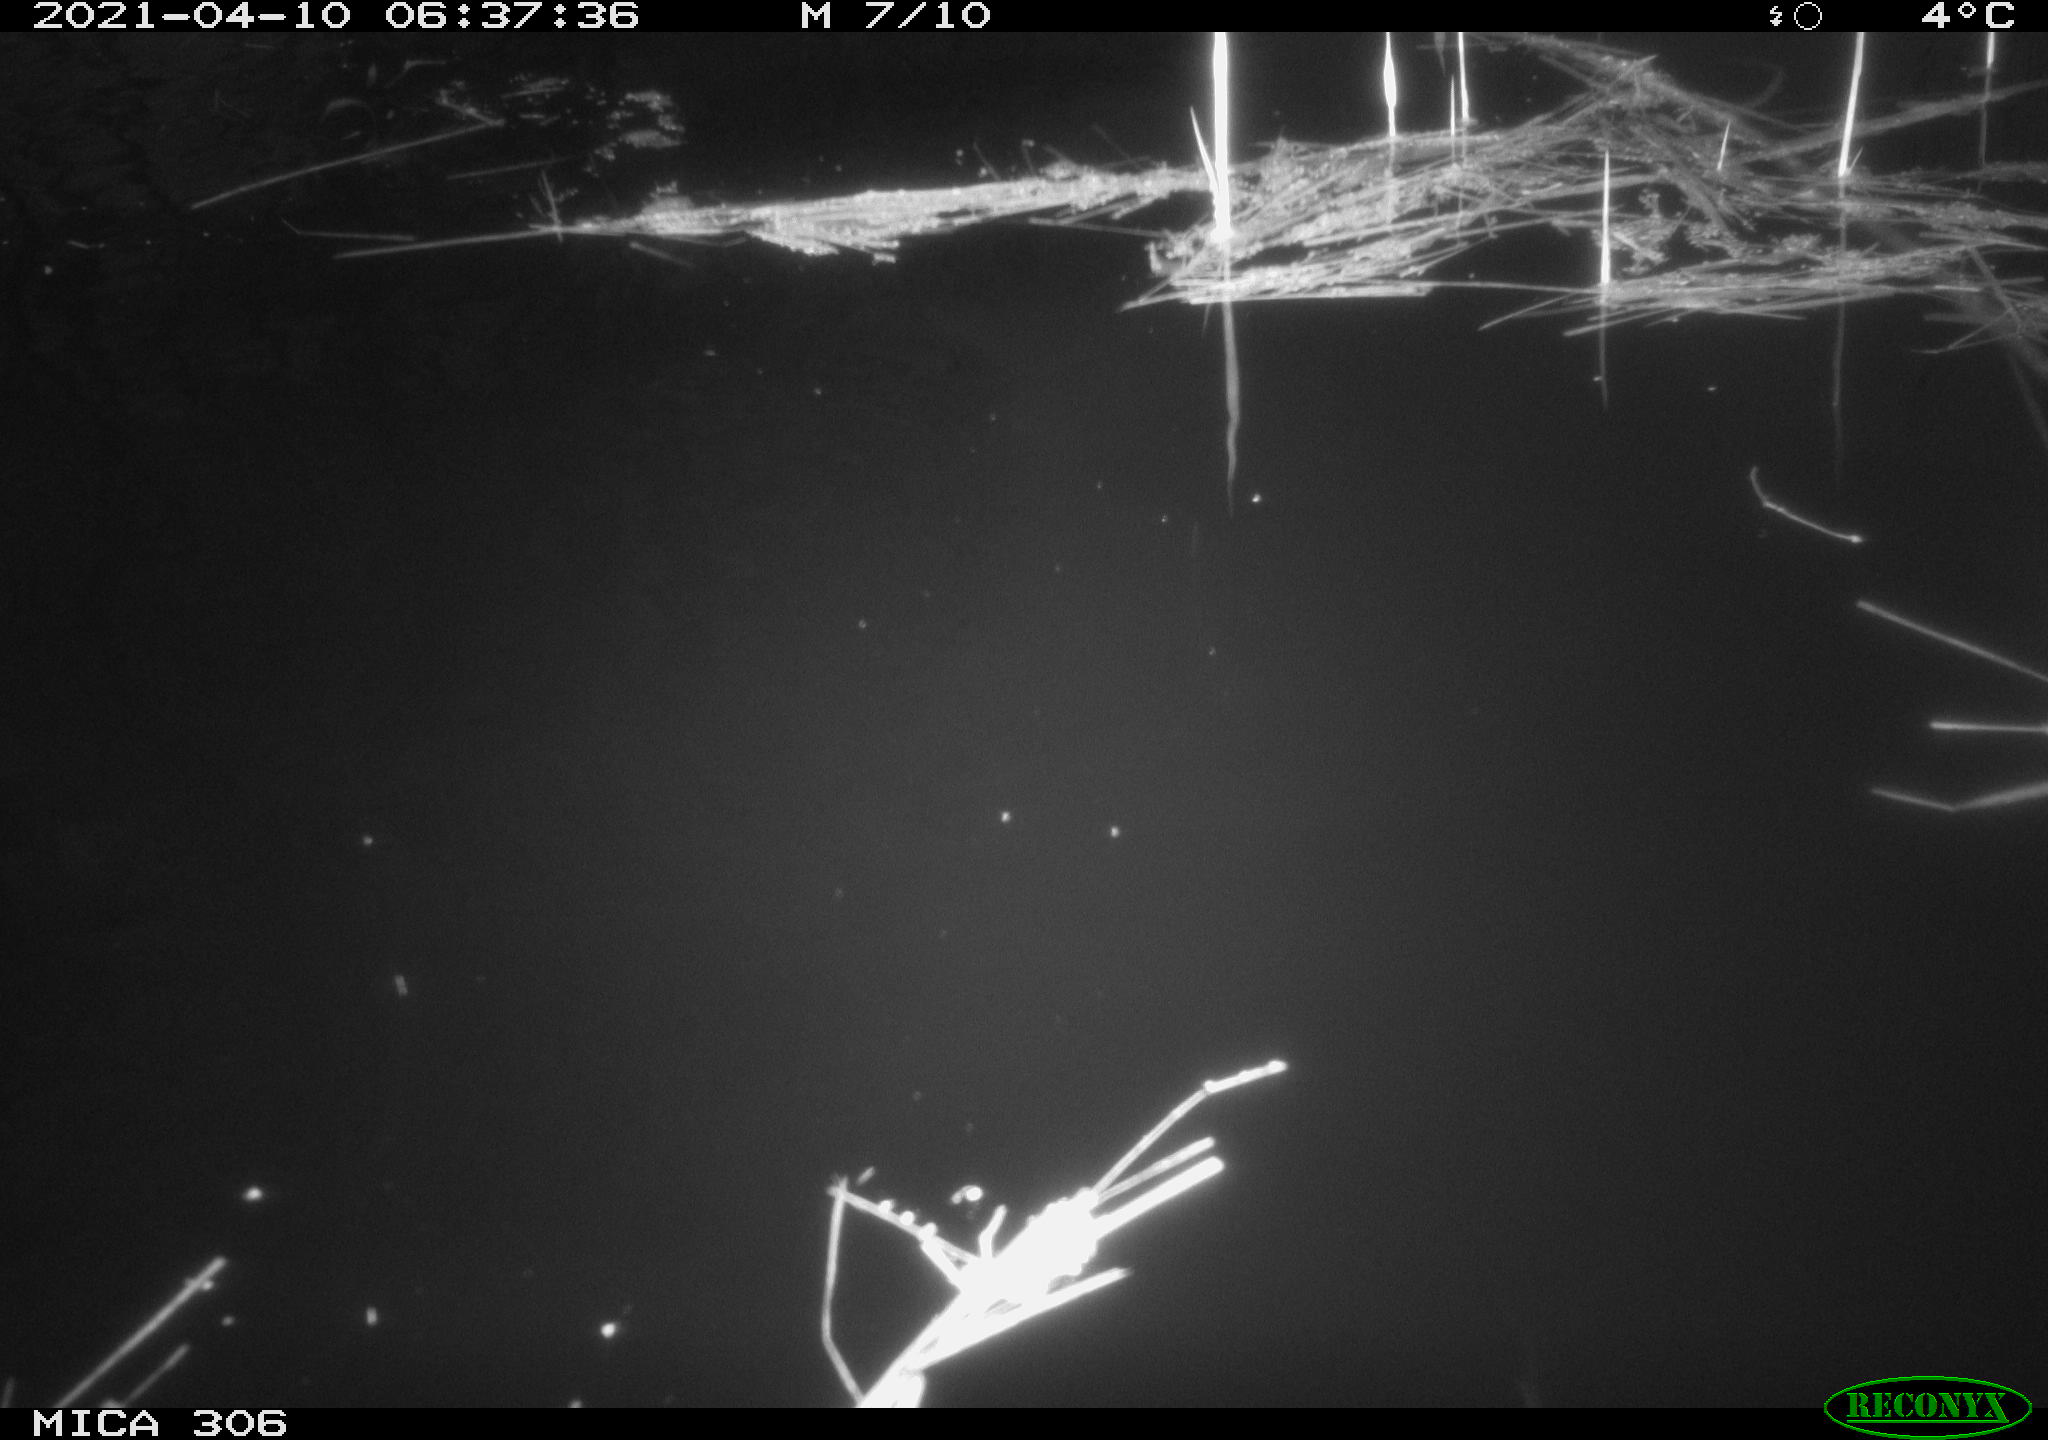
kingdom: Animalia
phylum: Chordata
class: Aves
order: Anseriformes
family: Anatidae
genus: Anas
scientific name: Anas
